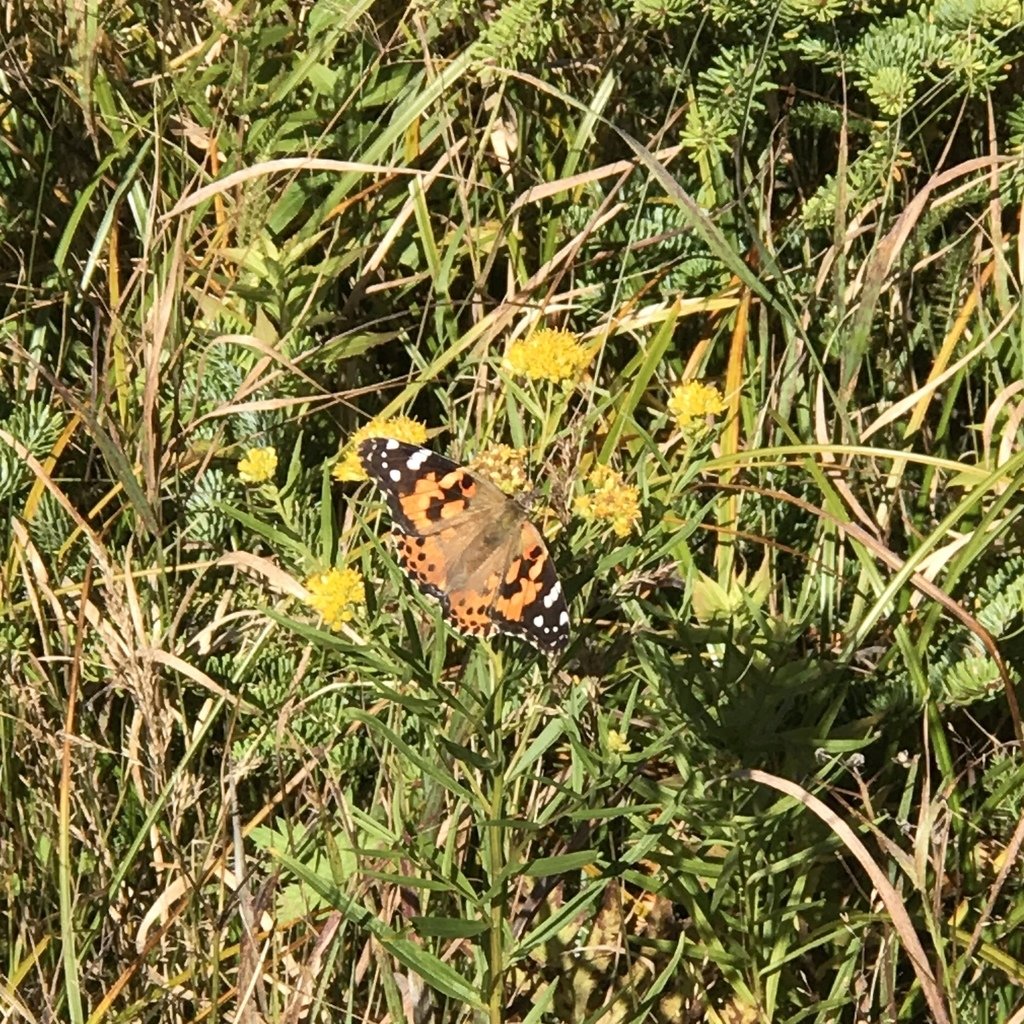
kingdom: Animalia
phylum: Arthropoda
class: Insecta
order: Lepidoptera
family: Nymphalidae
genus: Vanessa
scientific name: Vanessa cardui
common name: Painted Lady
